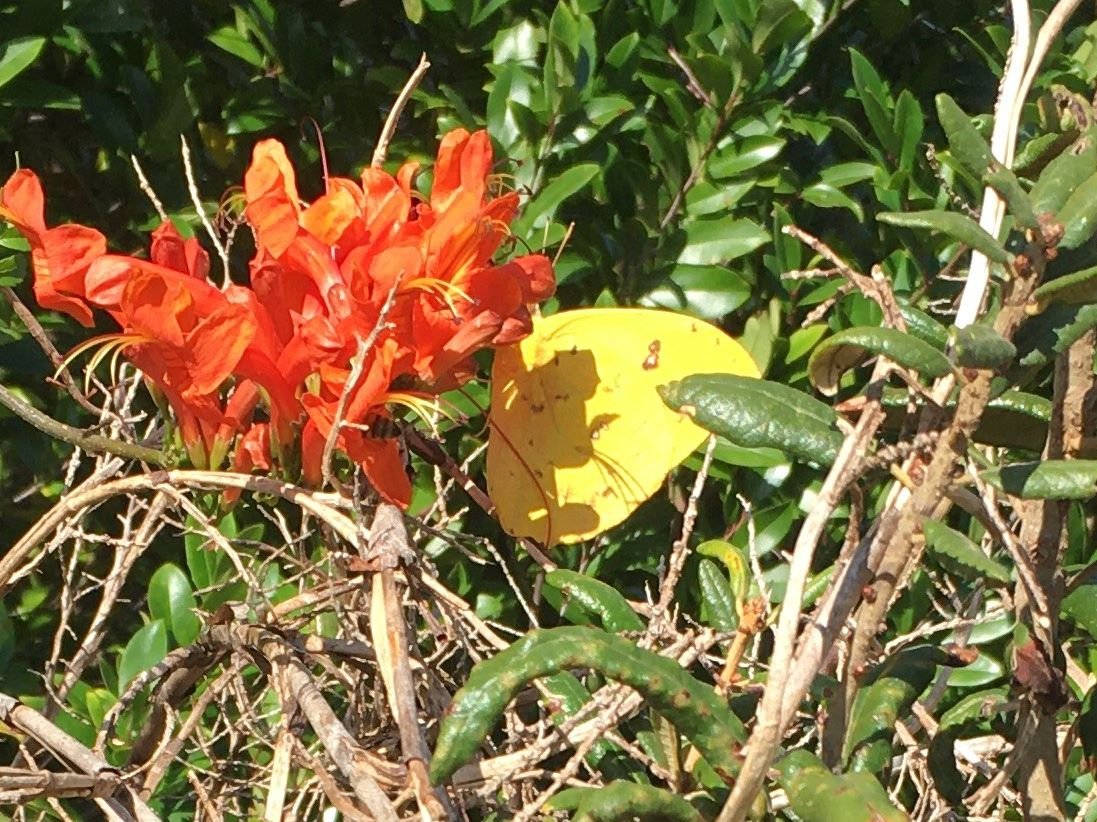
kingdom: Animalia
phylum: Arthropoda
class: Insecta
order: Lepidoptera
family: Pieridae
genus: Phoebis
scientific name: Phoebis philea
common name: Orange-barred Sulphur
